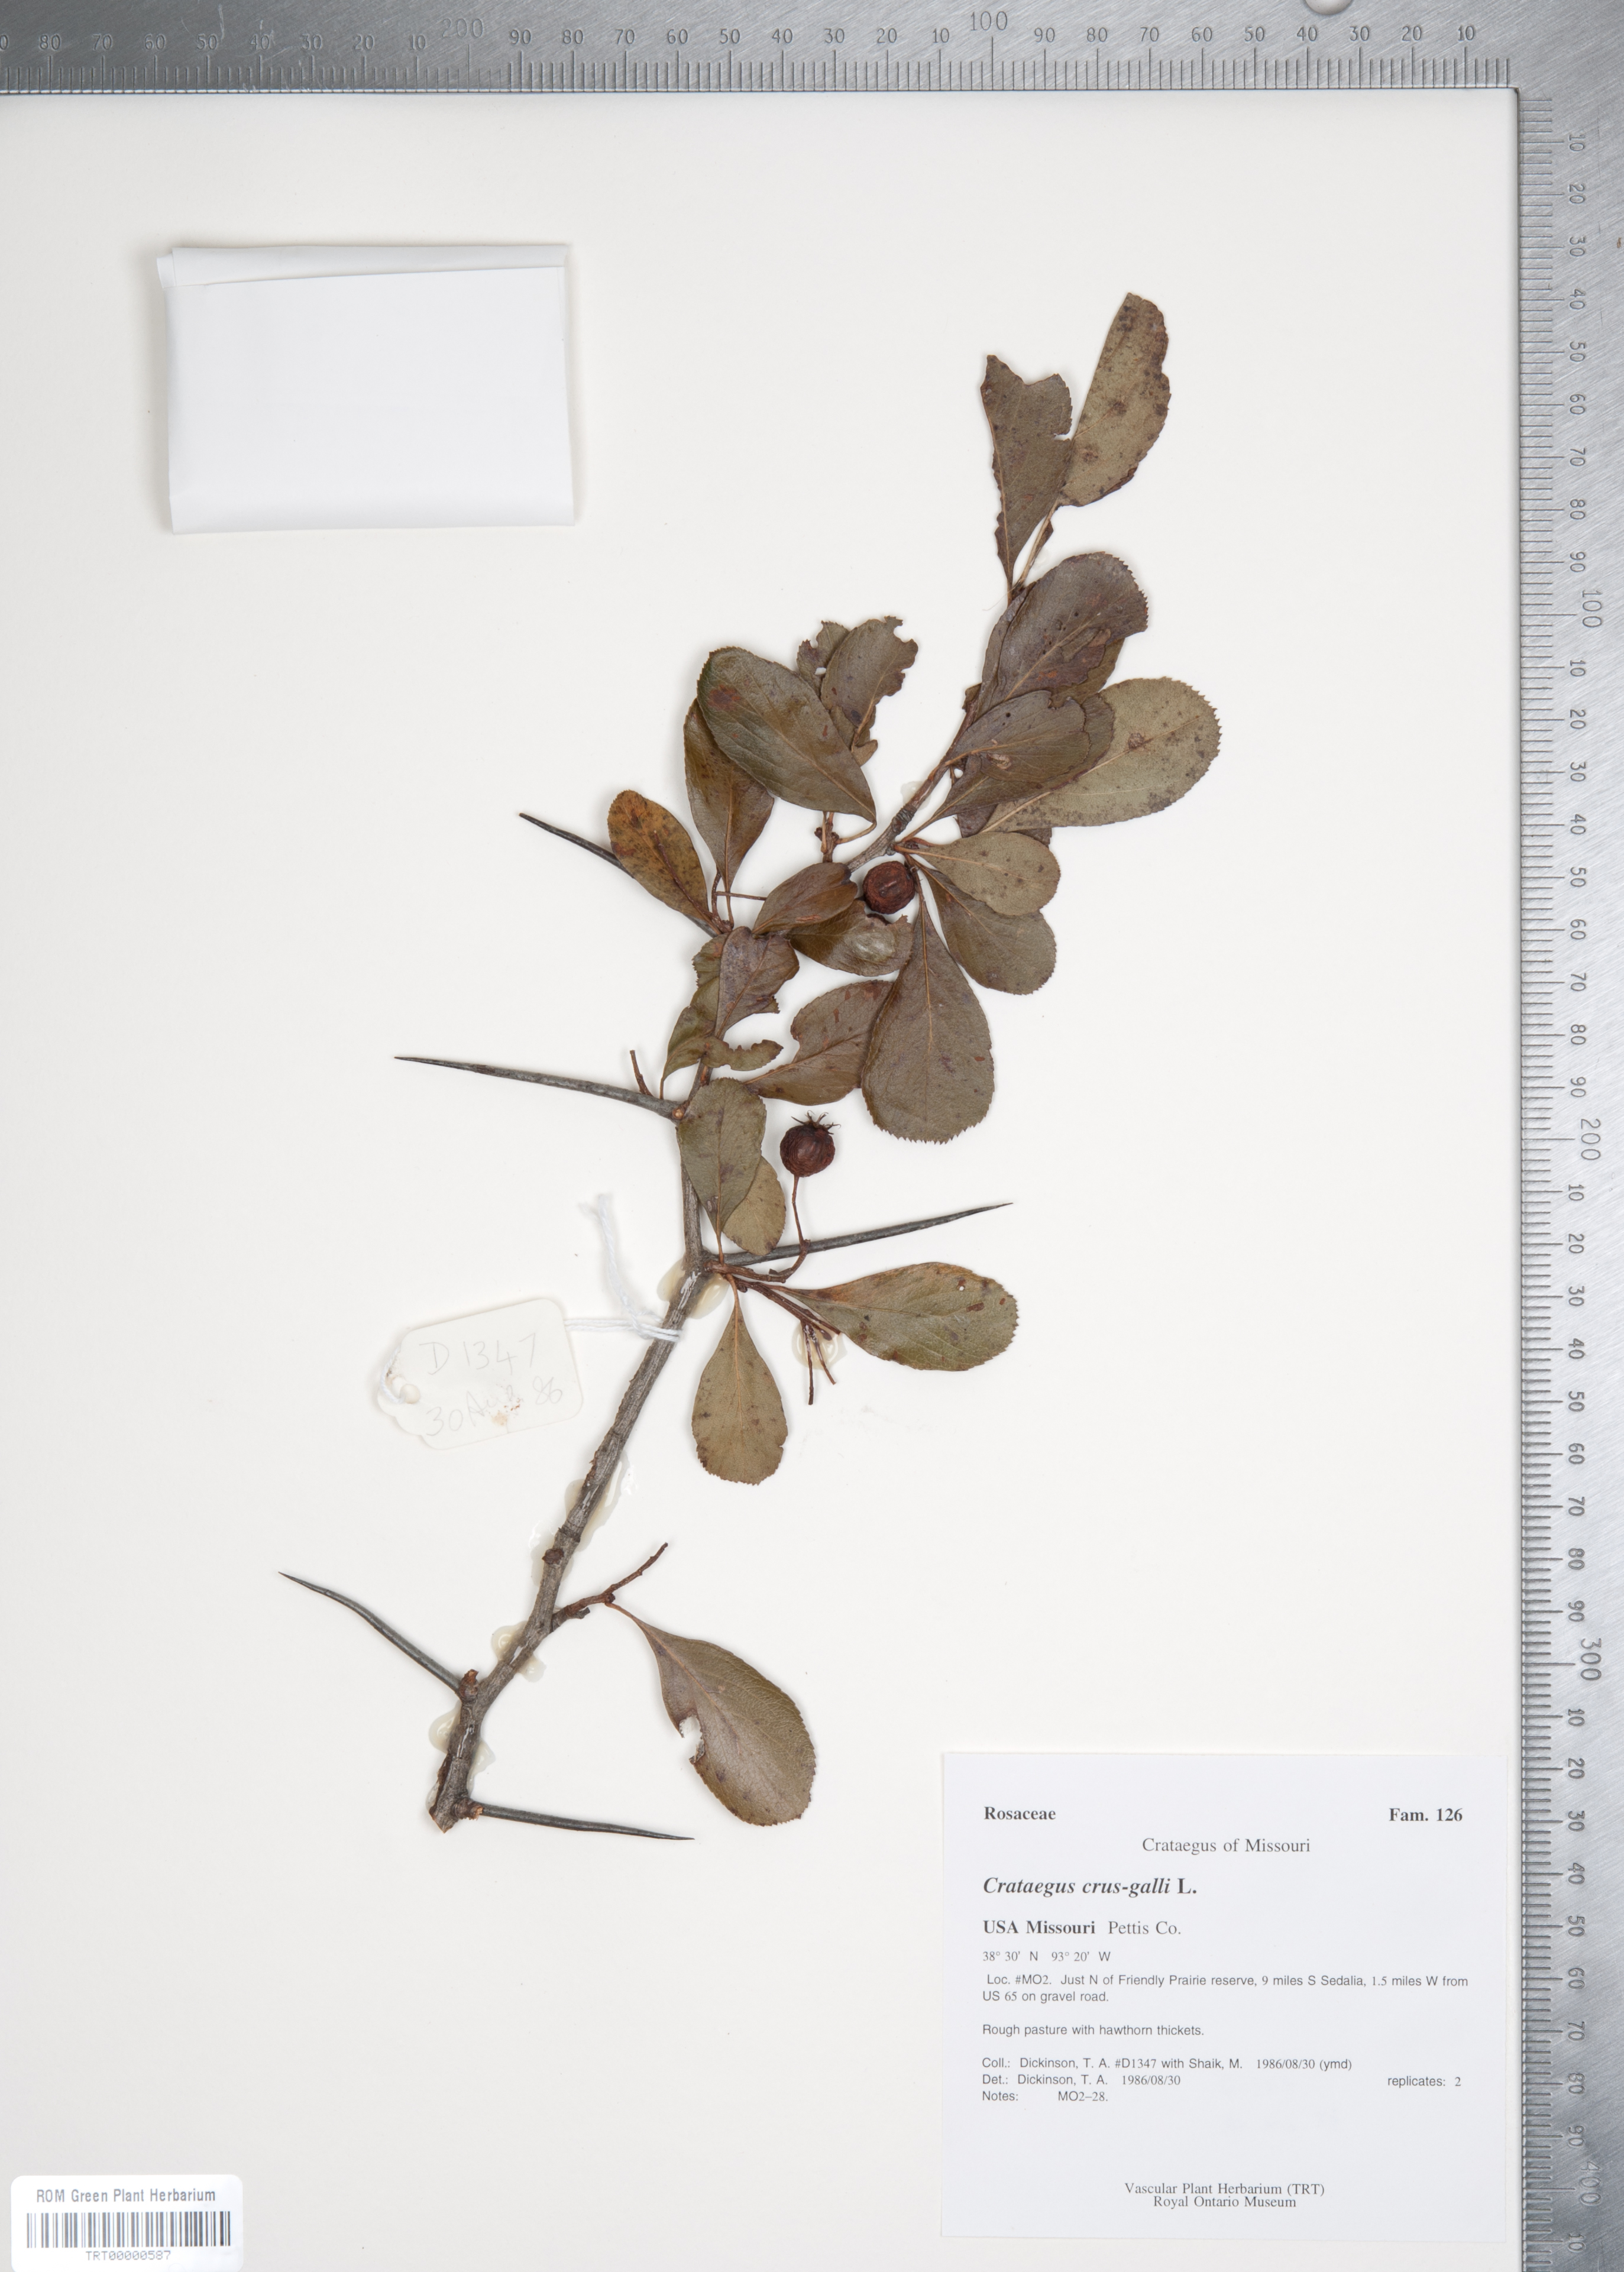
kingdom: Plantae
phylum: Tracheophyta
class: Magnoliopsida
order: Rosales
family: Rosaceae
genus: Crataegus
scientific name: Crataegus crus-galli
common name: Cockspurthorn
